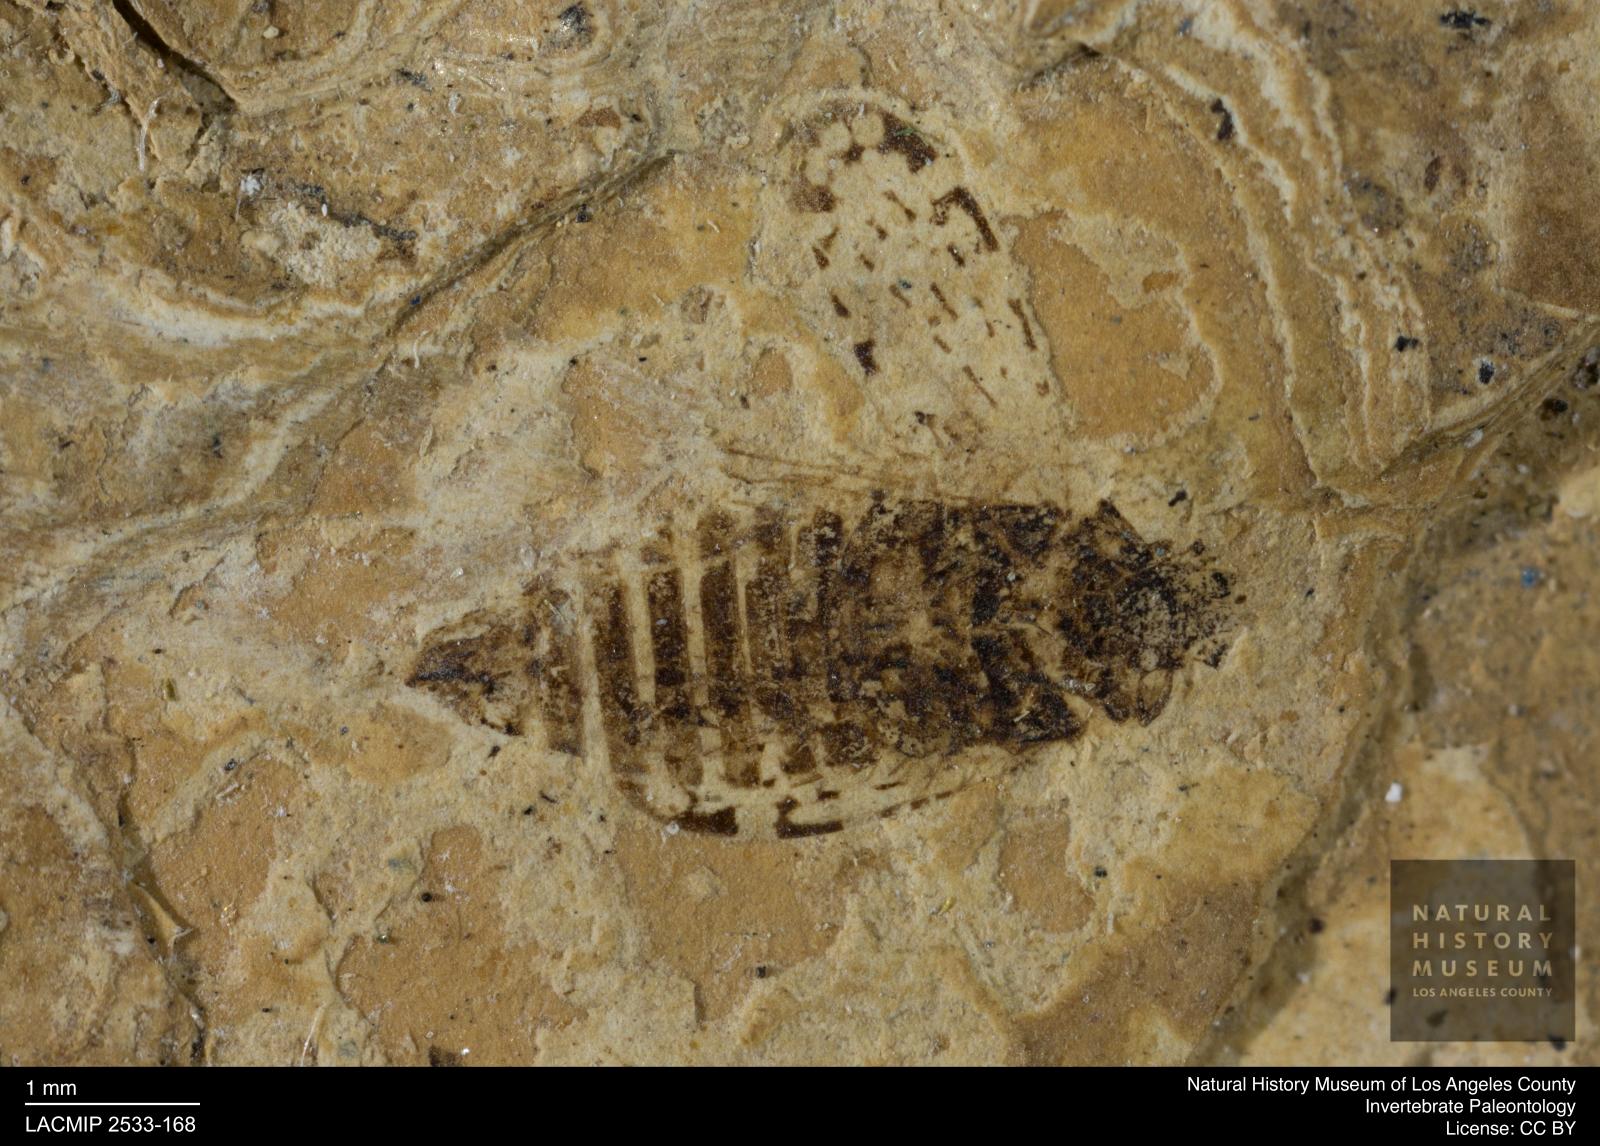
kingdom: Animalia
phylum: Arthropoda
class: Insecta
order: Hemiptera
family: Cicadellidae
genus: Deltocephalus
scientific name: Deltocephalus spinitibialis
